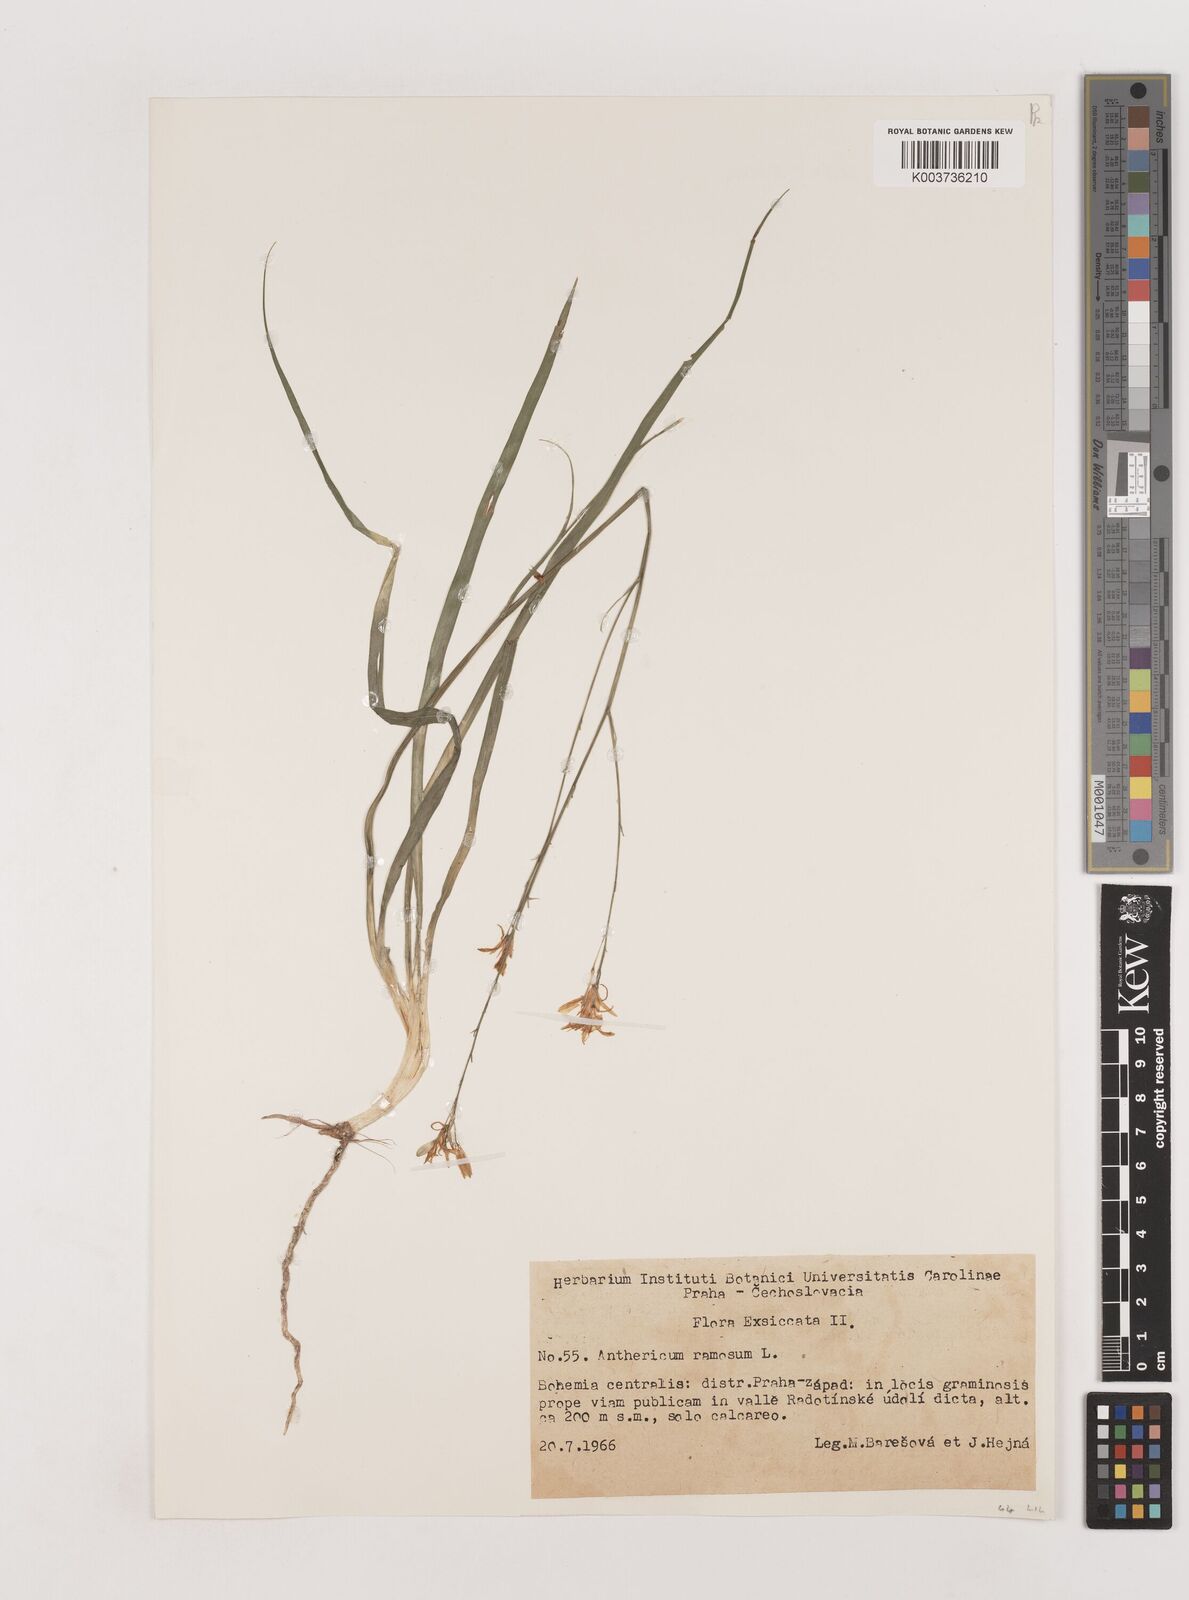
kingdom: Plantae
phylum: Tracheophyta
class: Liliopsida
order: Asparagales
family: Asparagaceae
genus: Chlorophytum
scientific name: Chlorophytum comosum
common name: Spider plant
